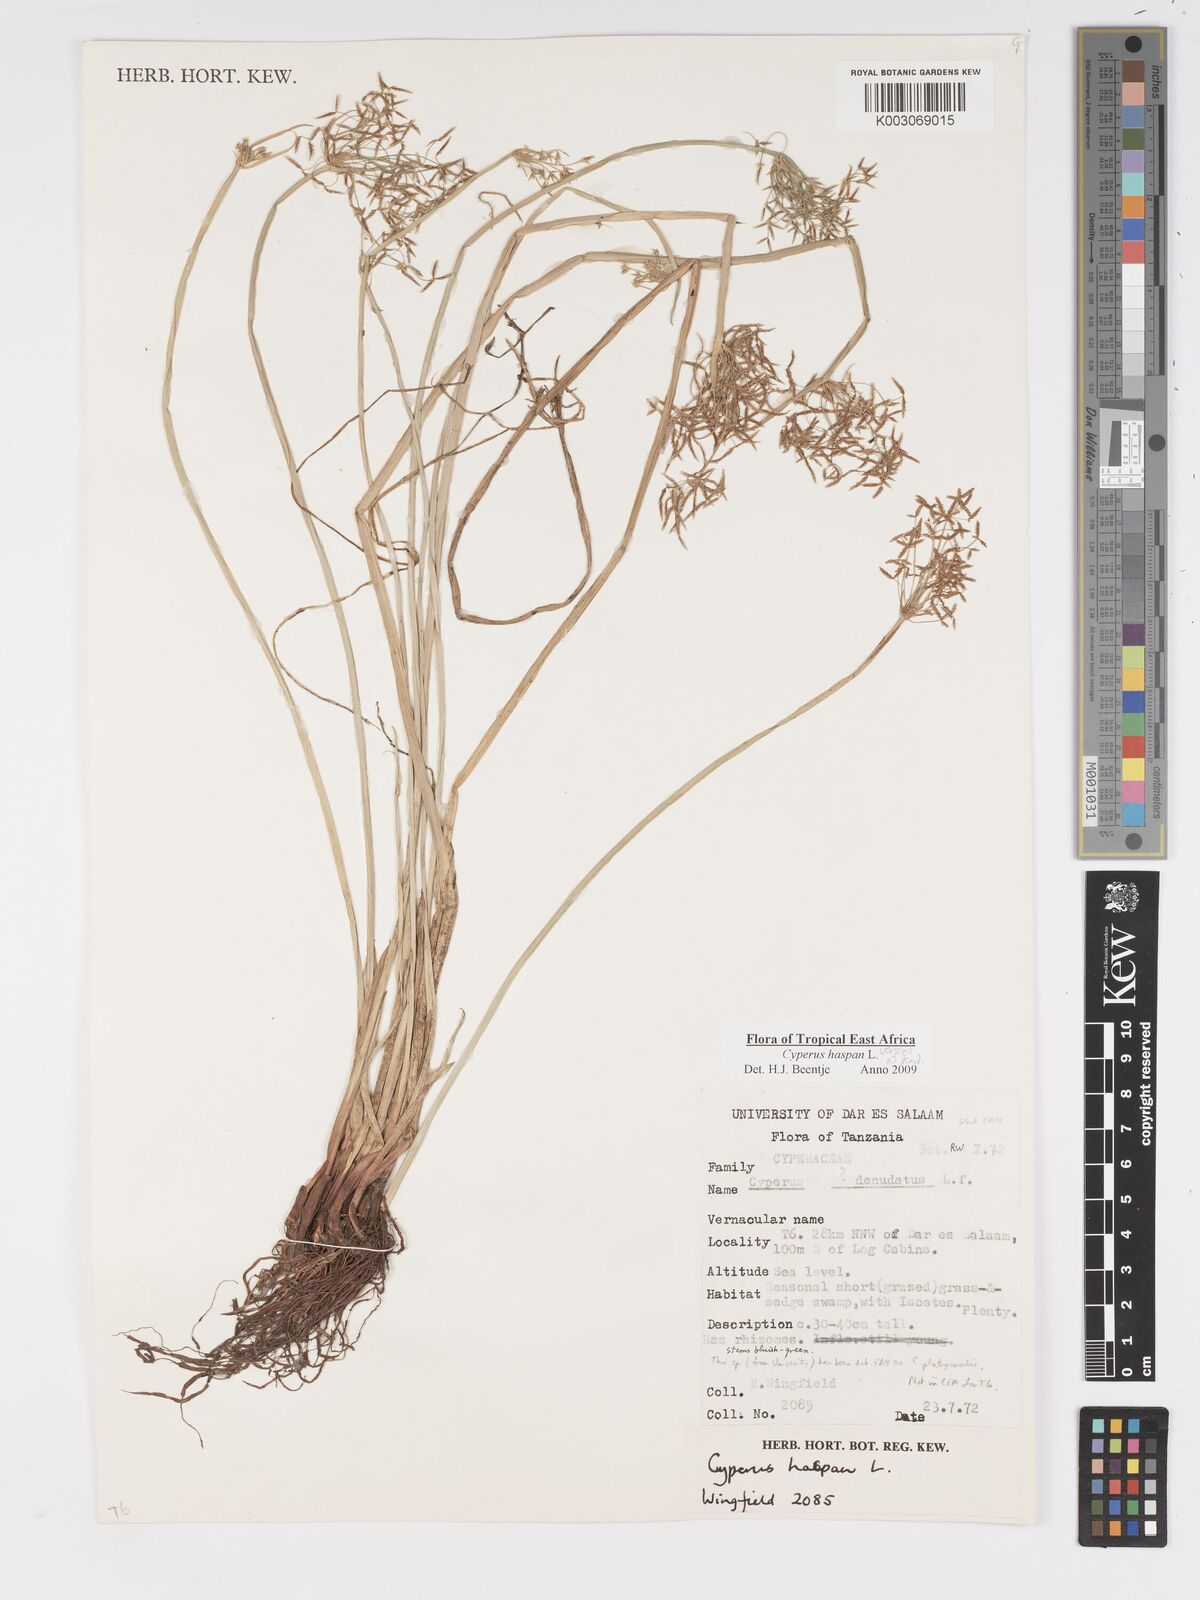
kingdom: Plantae
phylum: Tracheophyta
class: Liliopsida
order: Poales
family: Cyperaceae
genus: Cyperus
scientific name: Cyperus
